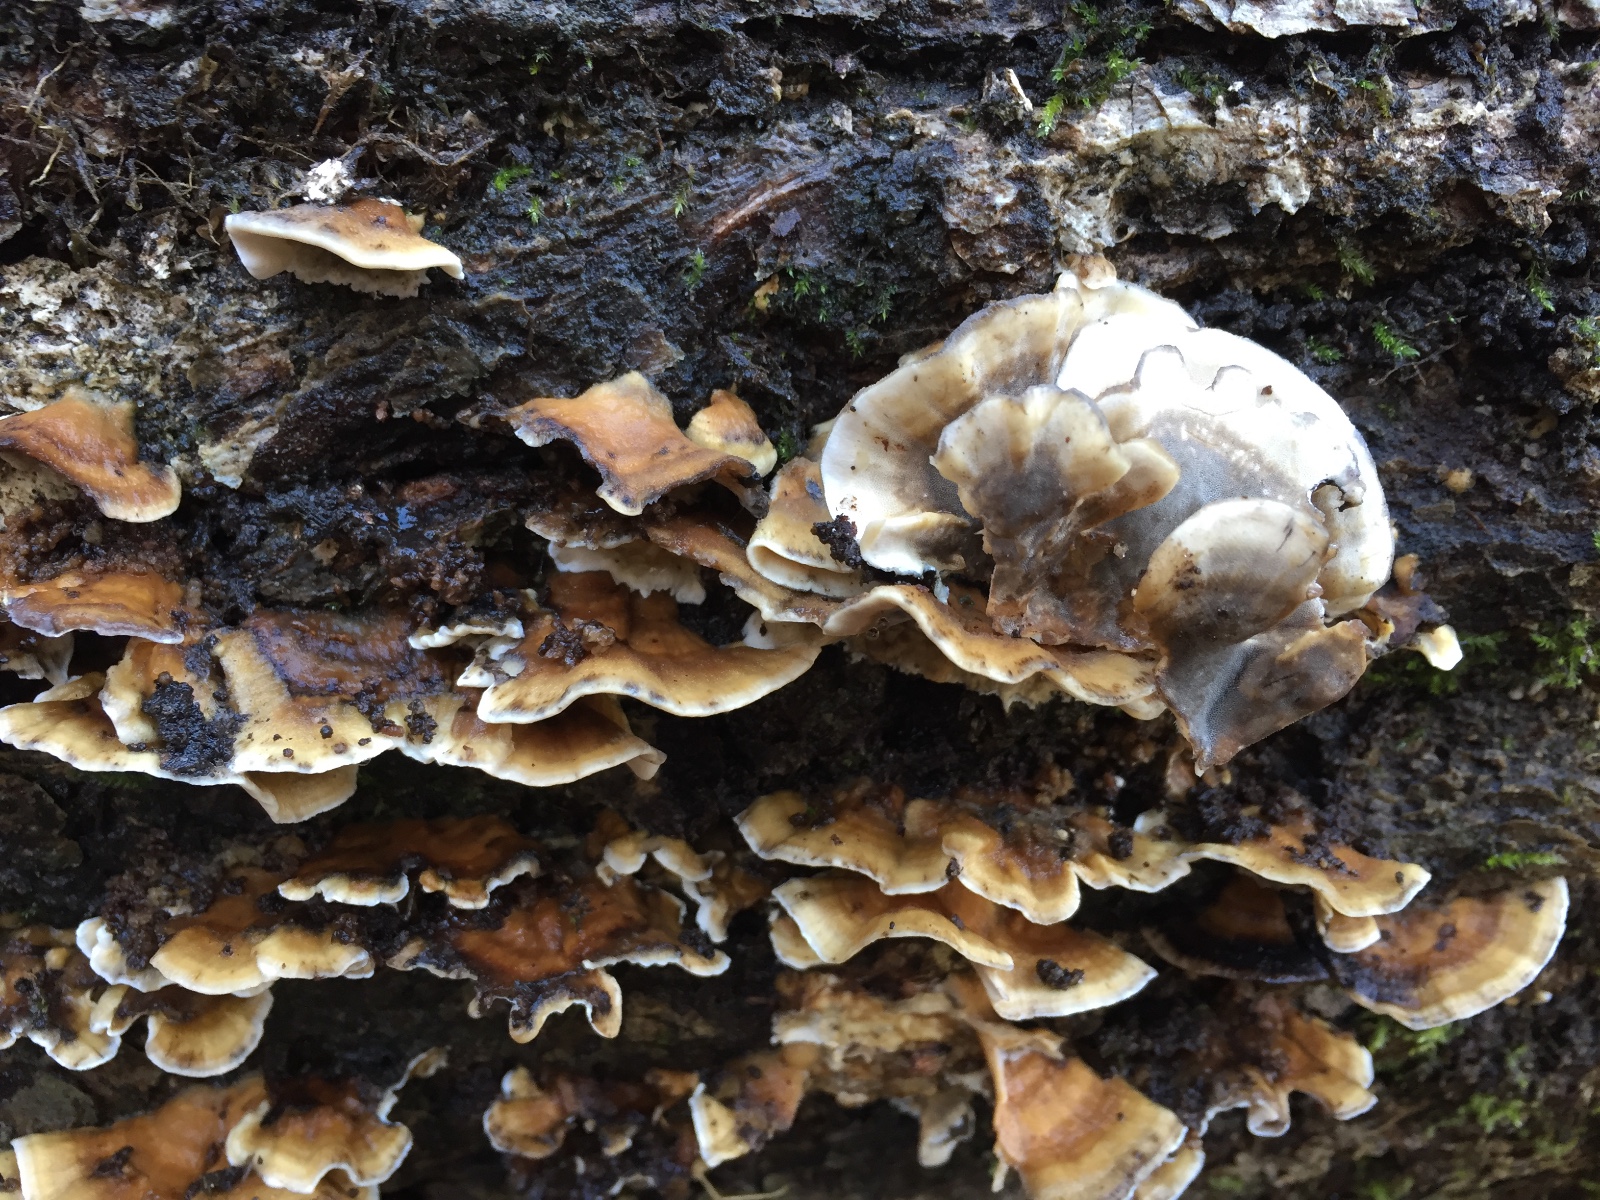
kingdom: Fungi
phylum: Basidiomycota
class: Agaricomycetes
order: Polyporales
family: Phanerochaetaceae
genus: Bjerkandera
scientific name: Bjerkandera adusta
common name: sveden sodporesvamp
